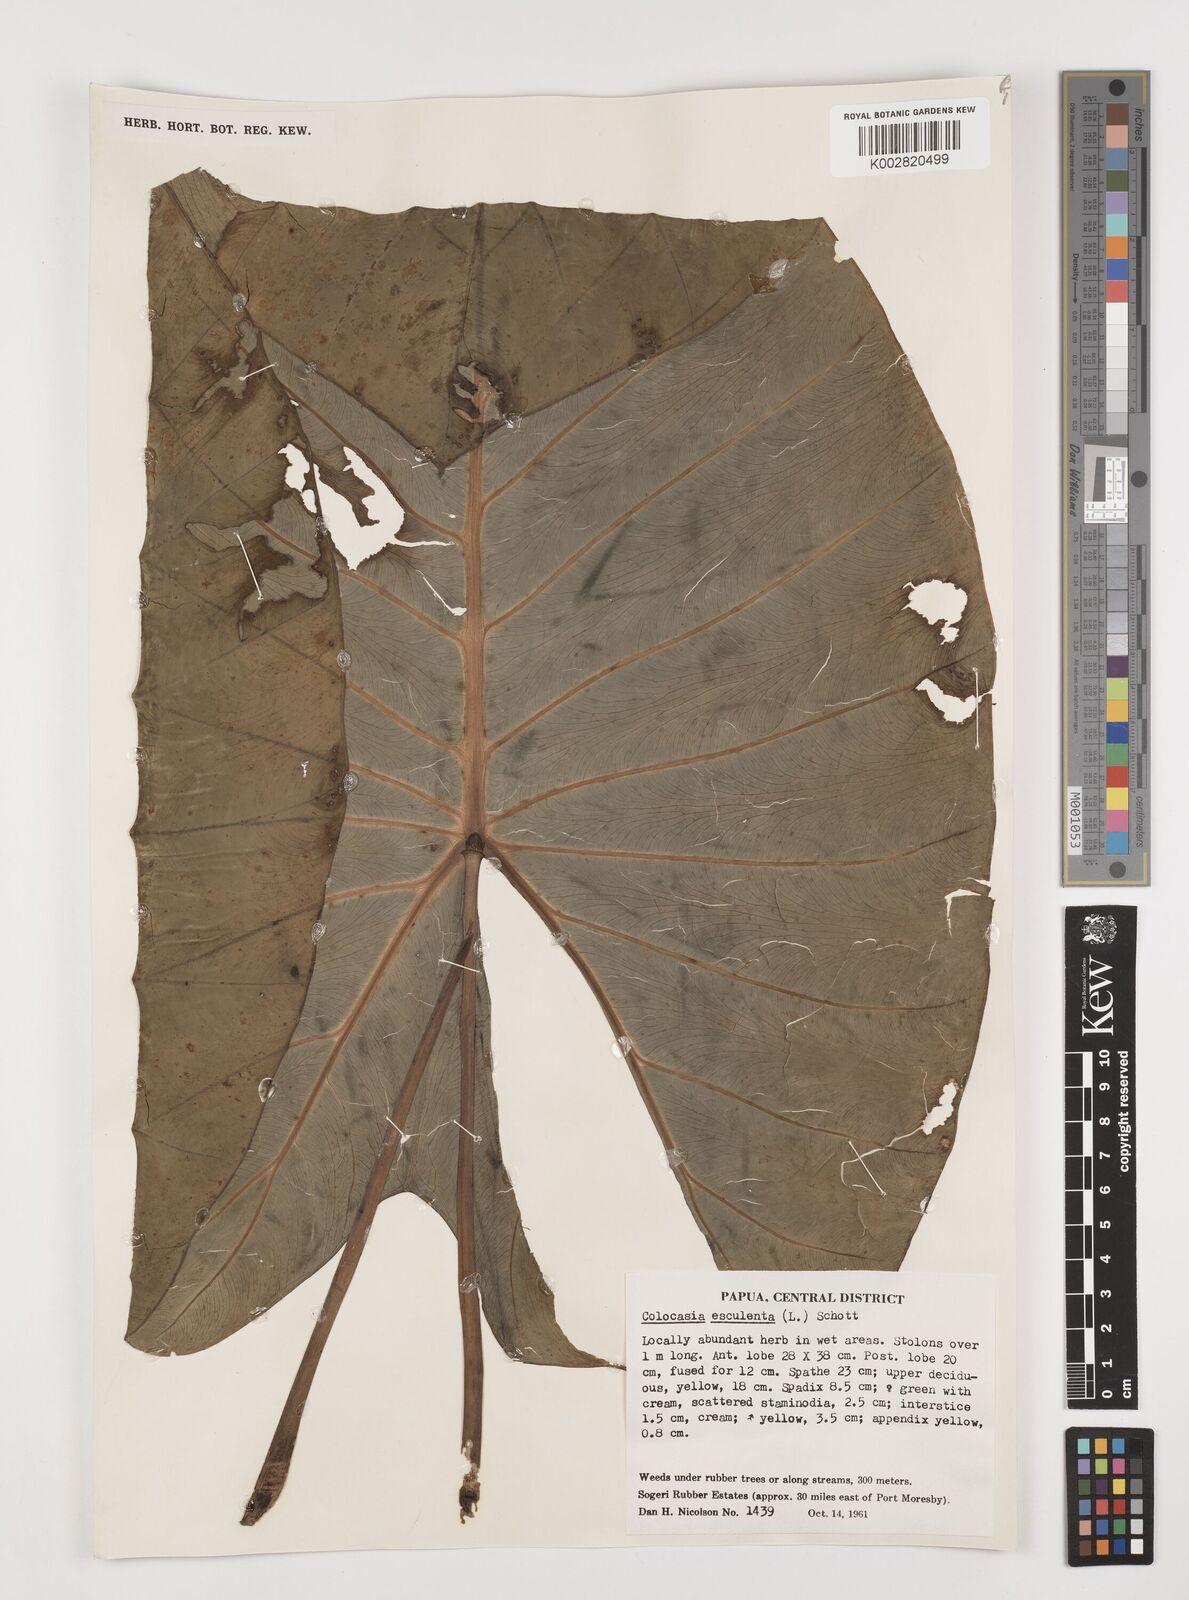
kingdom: Plantae
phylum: Tracheophyta
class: Liliopsida
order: Alismatales
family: Araceae
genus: Colocasia
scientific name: Colocasia esculenta
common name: Taro
